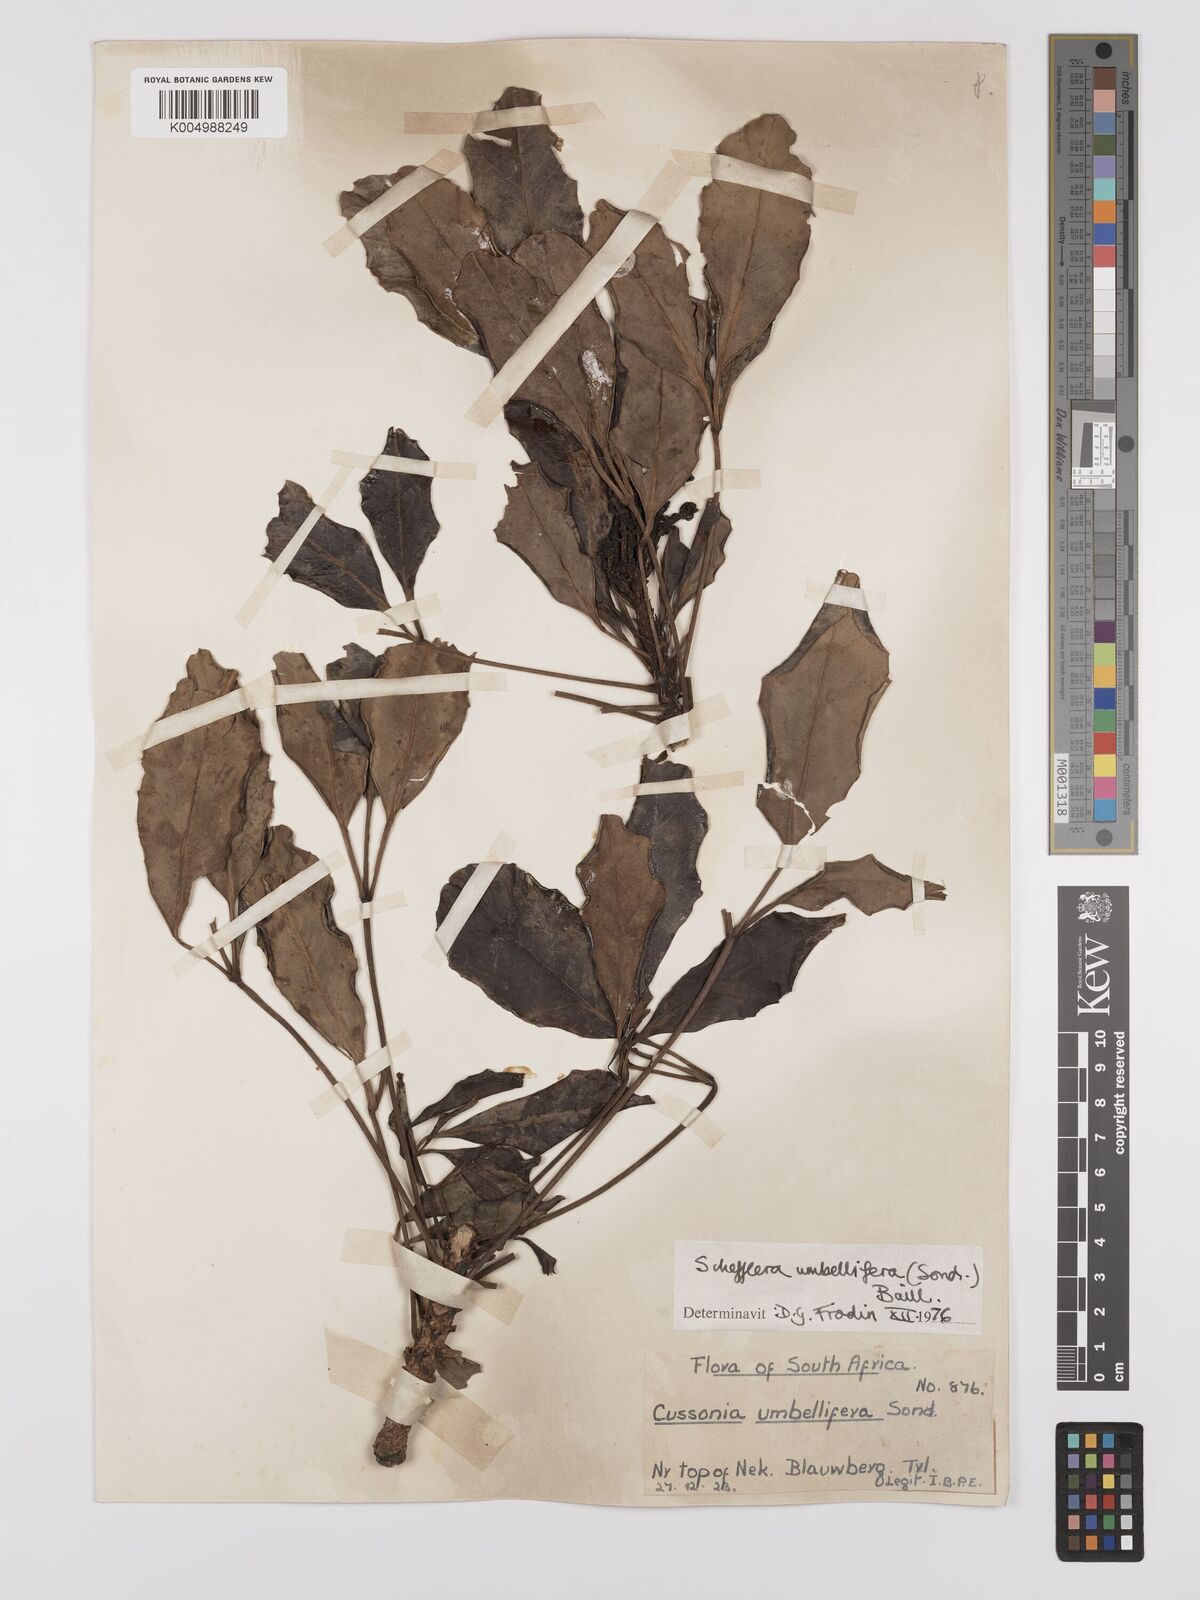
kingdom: Plantae
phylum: Tracheophyta
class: Magnoliopsida
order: Apiales
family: Araliaceae
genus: Neocussonia
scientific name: Neocussonia umbellifera
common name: False cabbage tree
